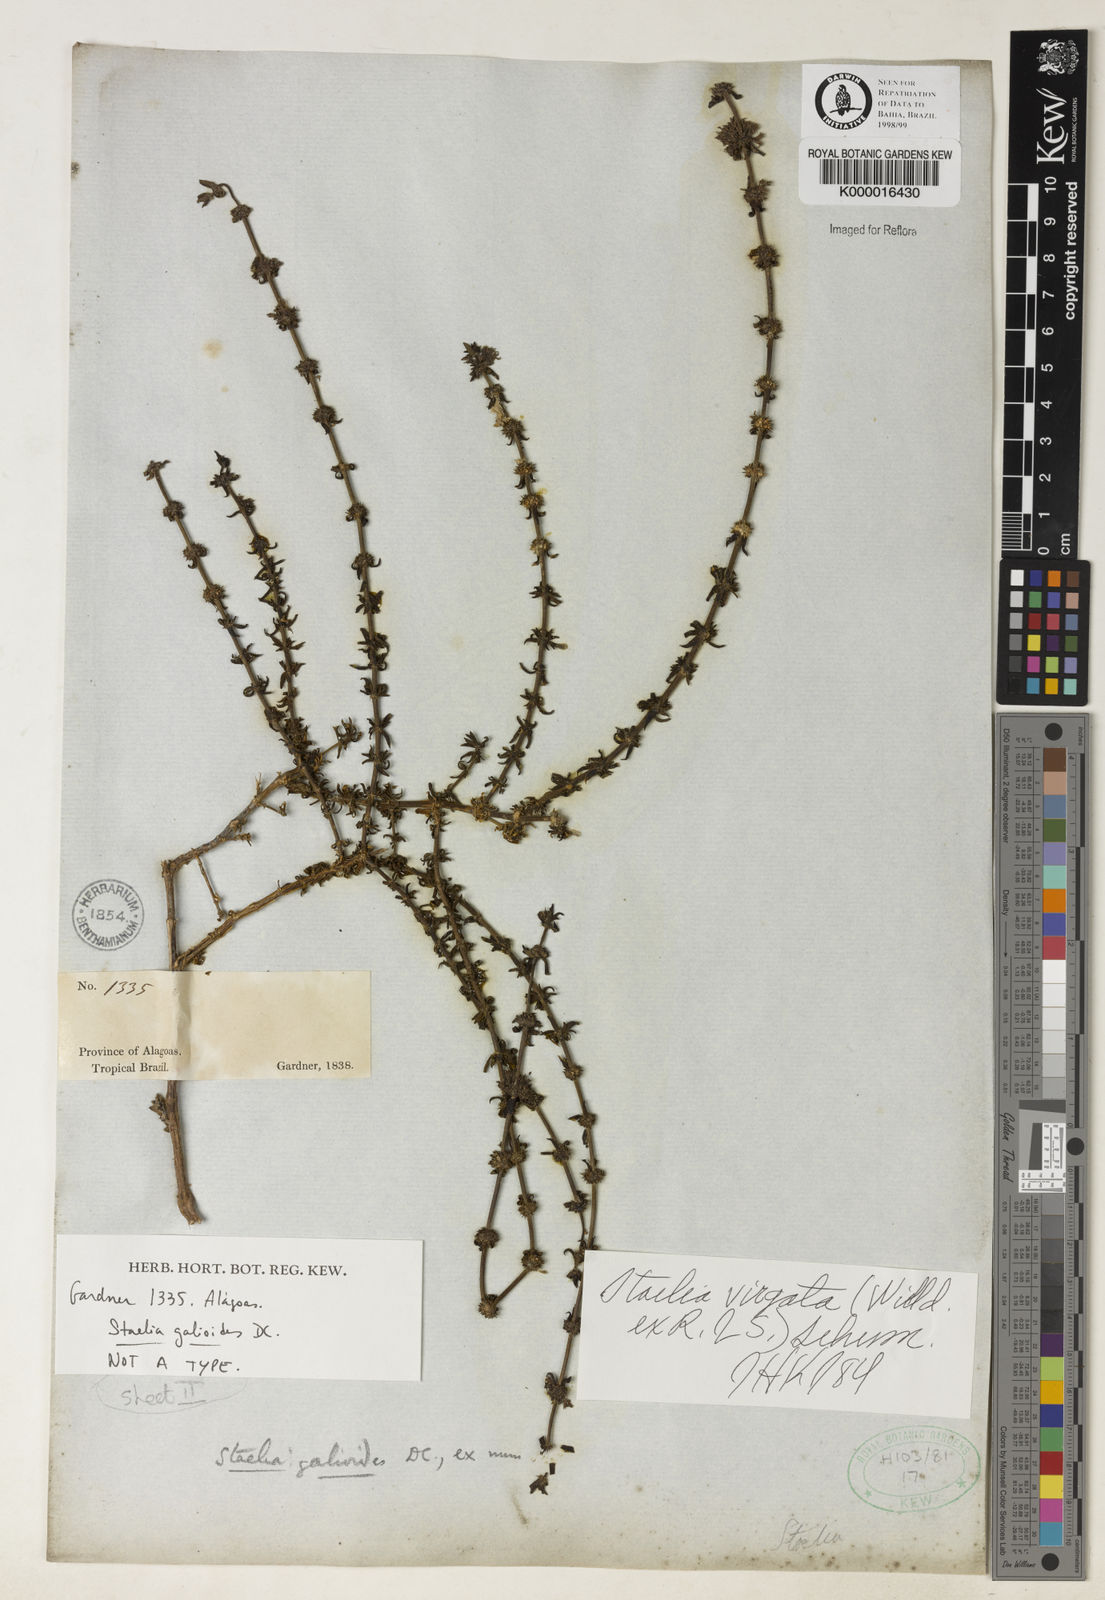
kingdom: Plantae
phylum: Tracheophyta
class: Magnoliopsida
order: Gentianales
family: Rubiaceae
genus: Staelia
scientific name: Staelia galioides
